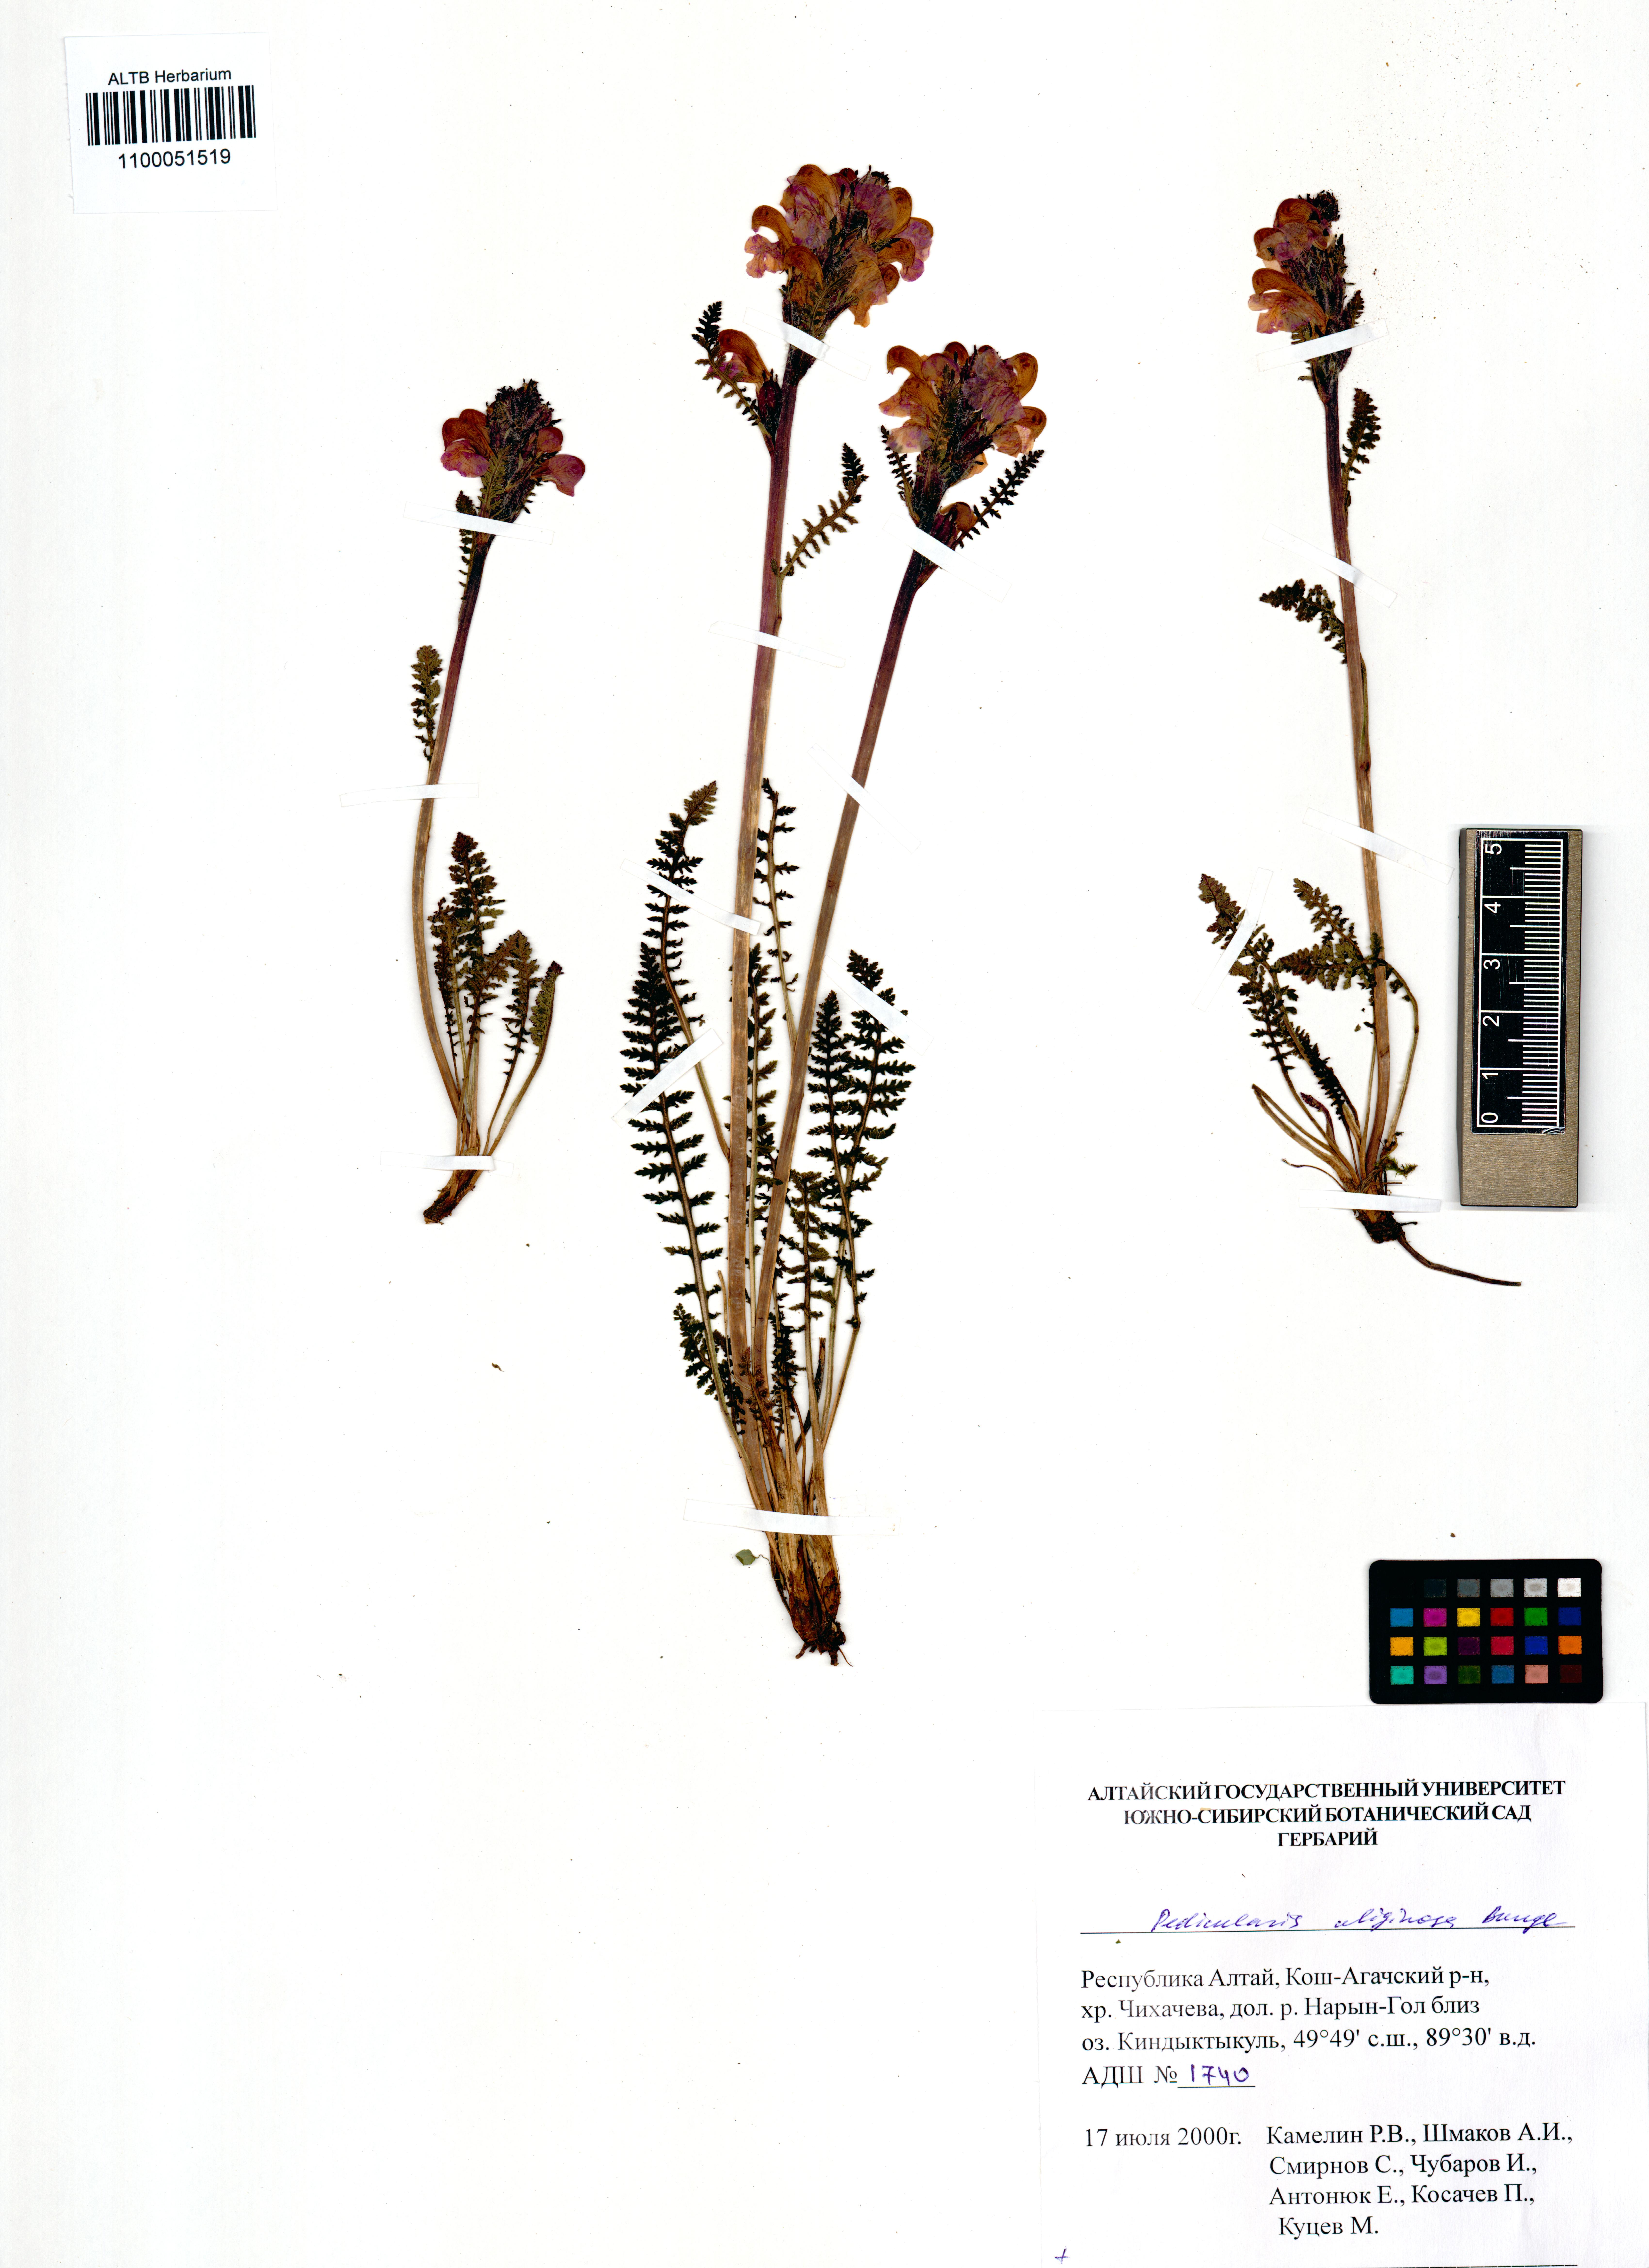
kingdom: Plantae
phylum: Tracheophyta
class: Magnoliopsida
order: Lamiales
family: Orobanchaceae
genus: Pedicularis
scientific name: Pedicularis uliginosa
